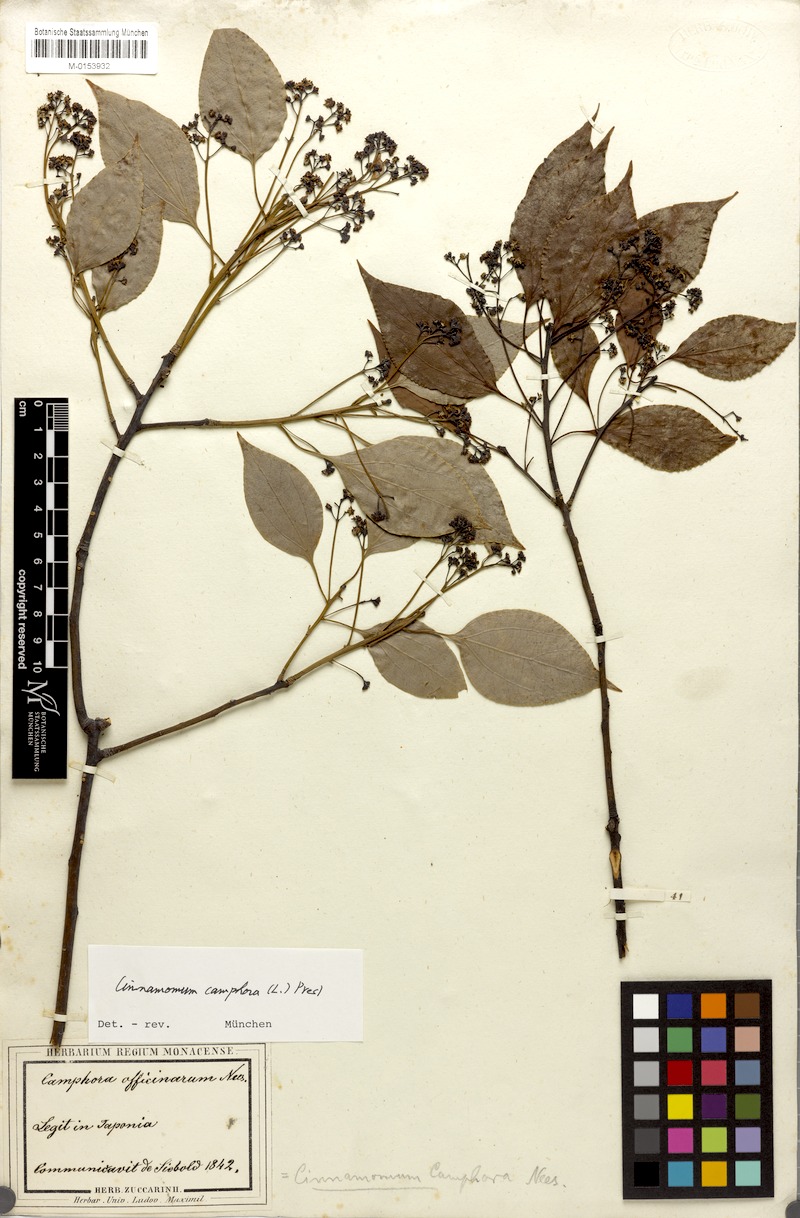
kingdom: Plantae
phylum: Tracheophyta
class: Magnoliopsida
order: Laurales
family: Lauraceae
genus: Cinnamomum
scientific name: Cinnamomum camphora
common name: Camphortree
